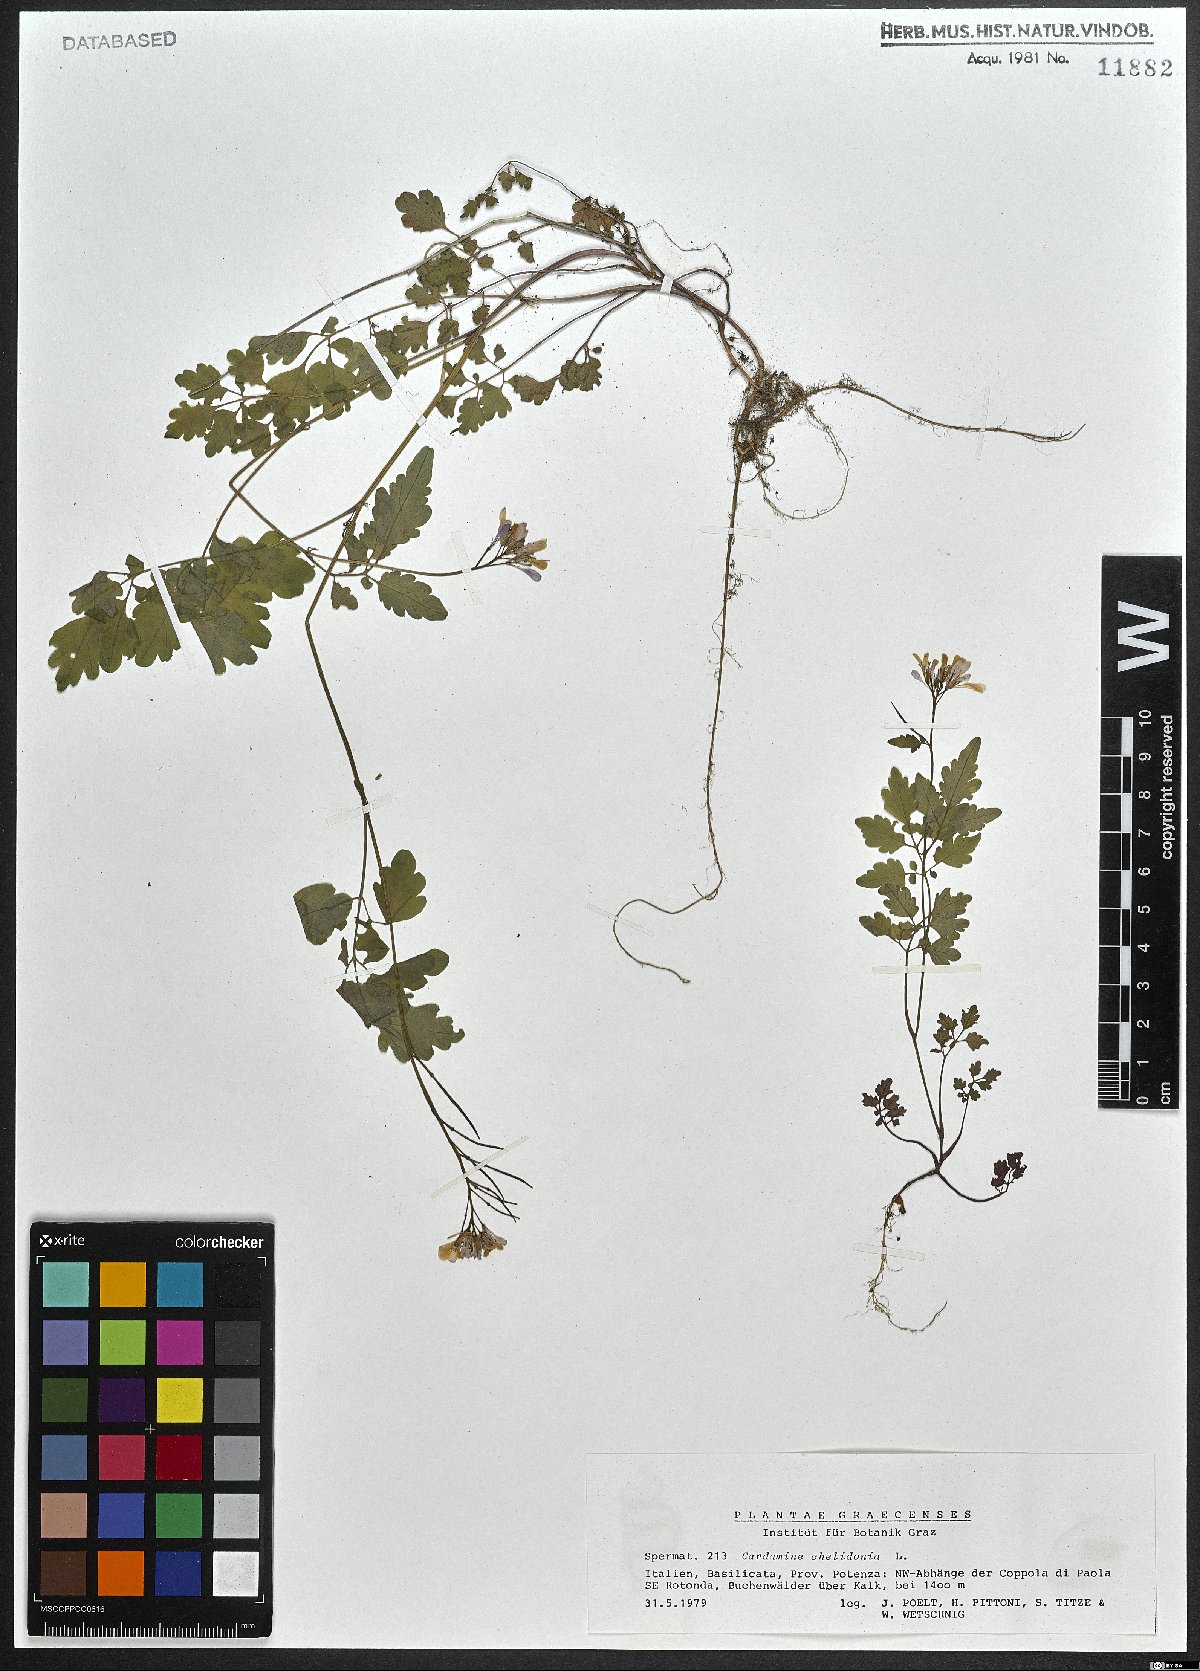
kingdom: Plantae
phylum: Tracheophyta
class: Magnoliopsida
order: Brassicales
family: Brassicaceae
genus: Cardamine
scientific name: Cardamine chelidonia
